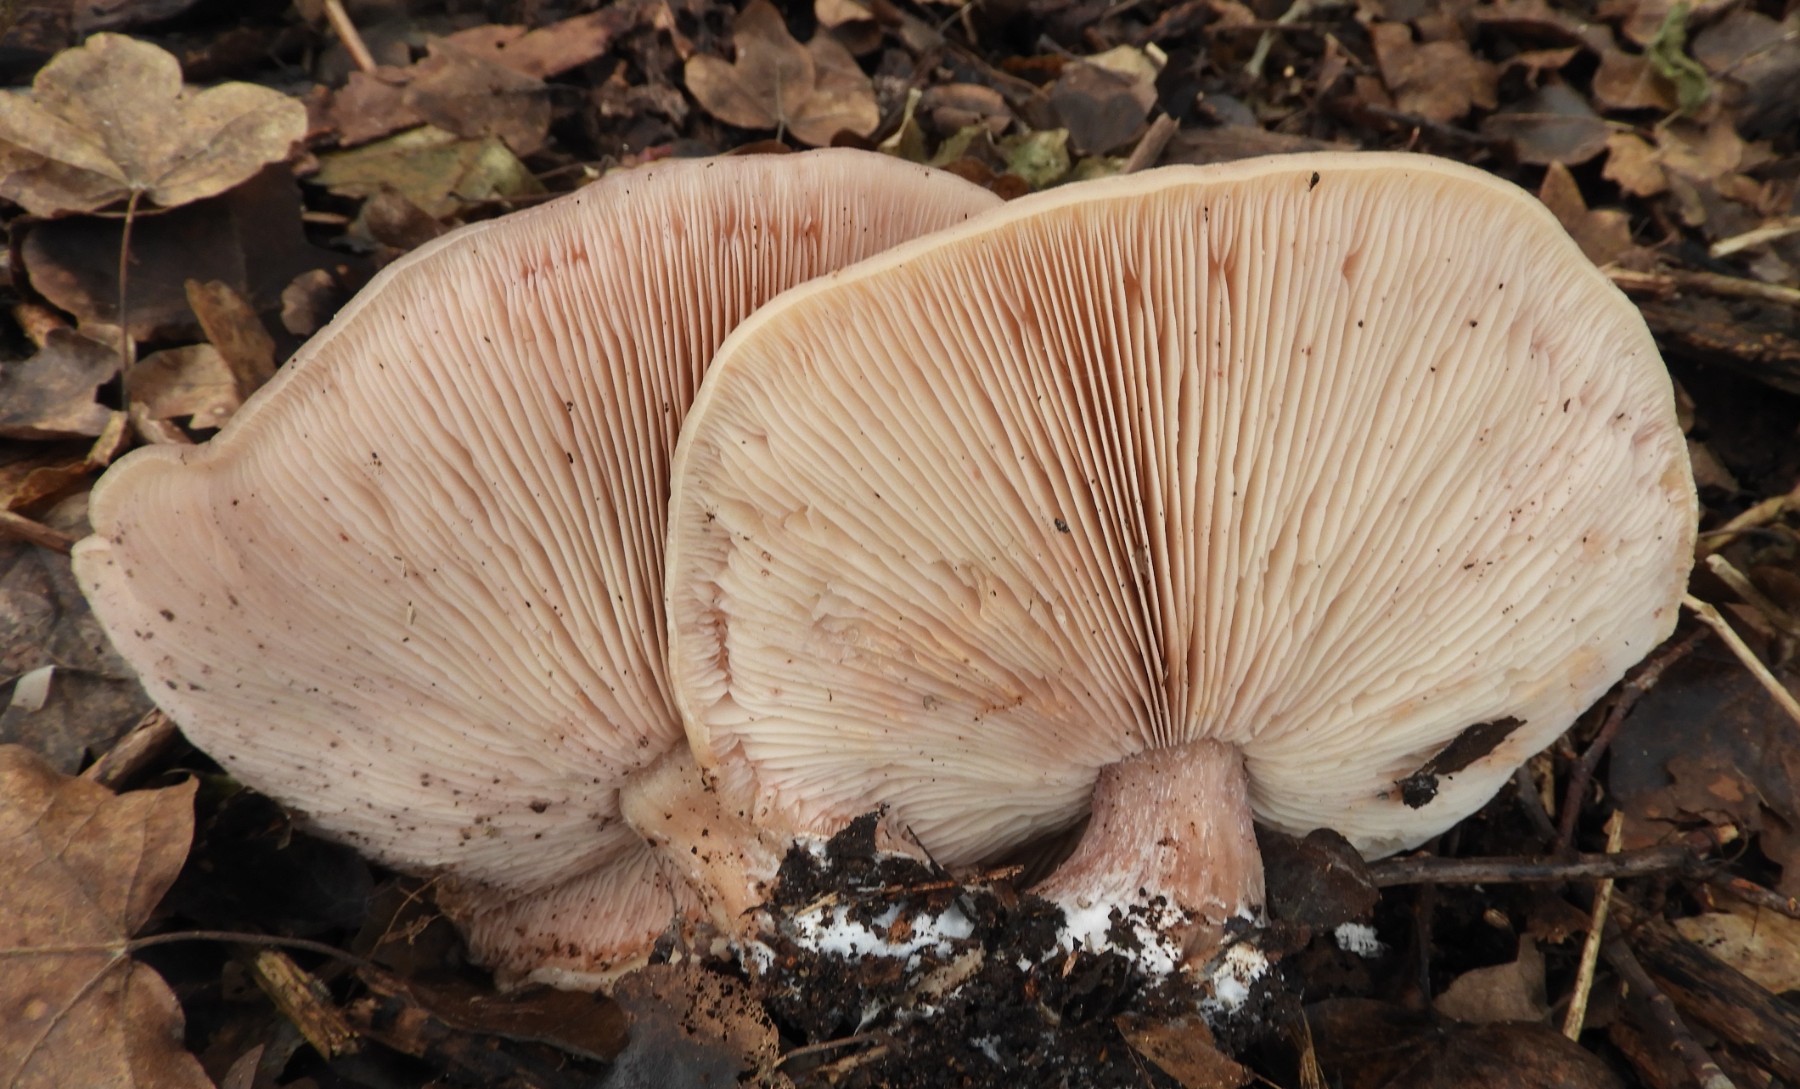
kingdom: Fungi
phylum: Basidiomycota
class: Agaricomycetes
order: Agaricales
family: Tricholomataceae
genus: Lepista
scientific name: Lepista personata
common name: bleg hekseringshat
